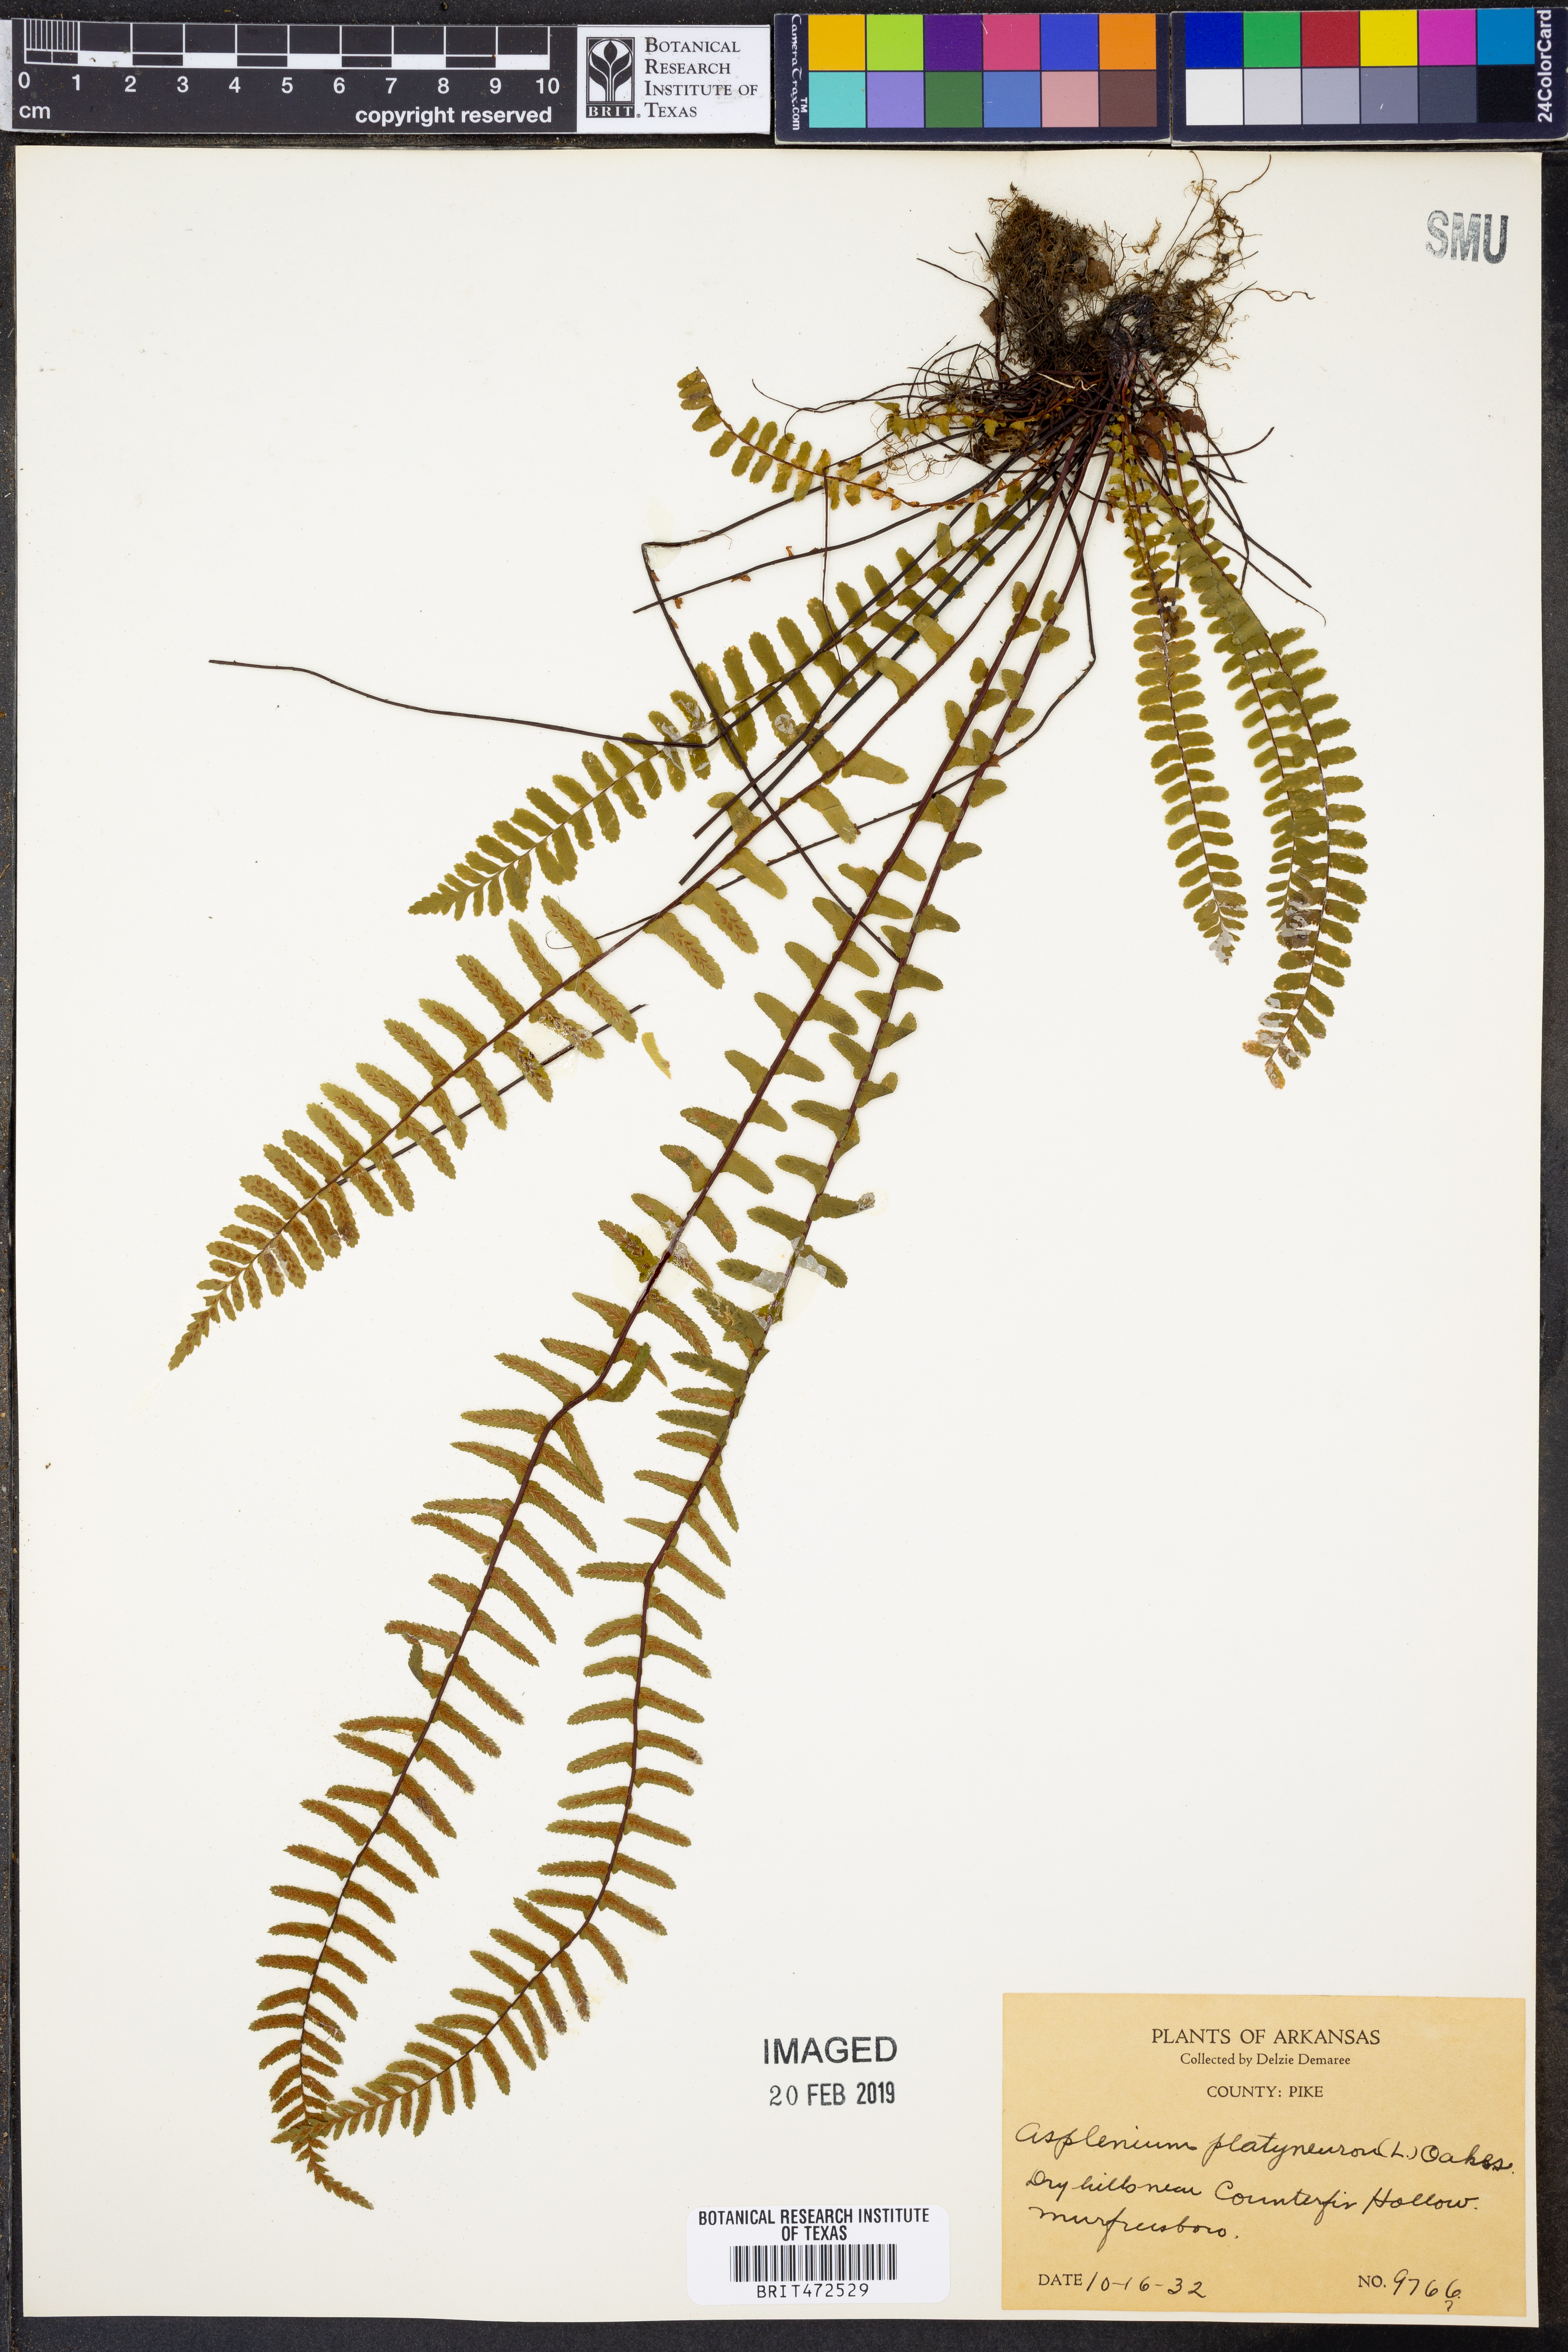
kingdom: Plantae
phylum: Tracheophyta
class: Polypodiopsida
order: Polypodiales
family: Aspleniaceae
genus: Asplenium
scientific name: Asplenium platyneuron
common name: Ebony spleenwort
